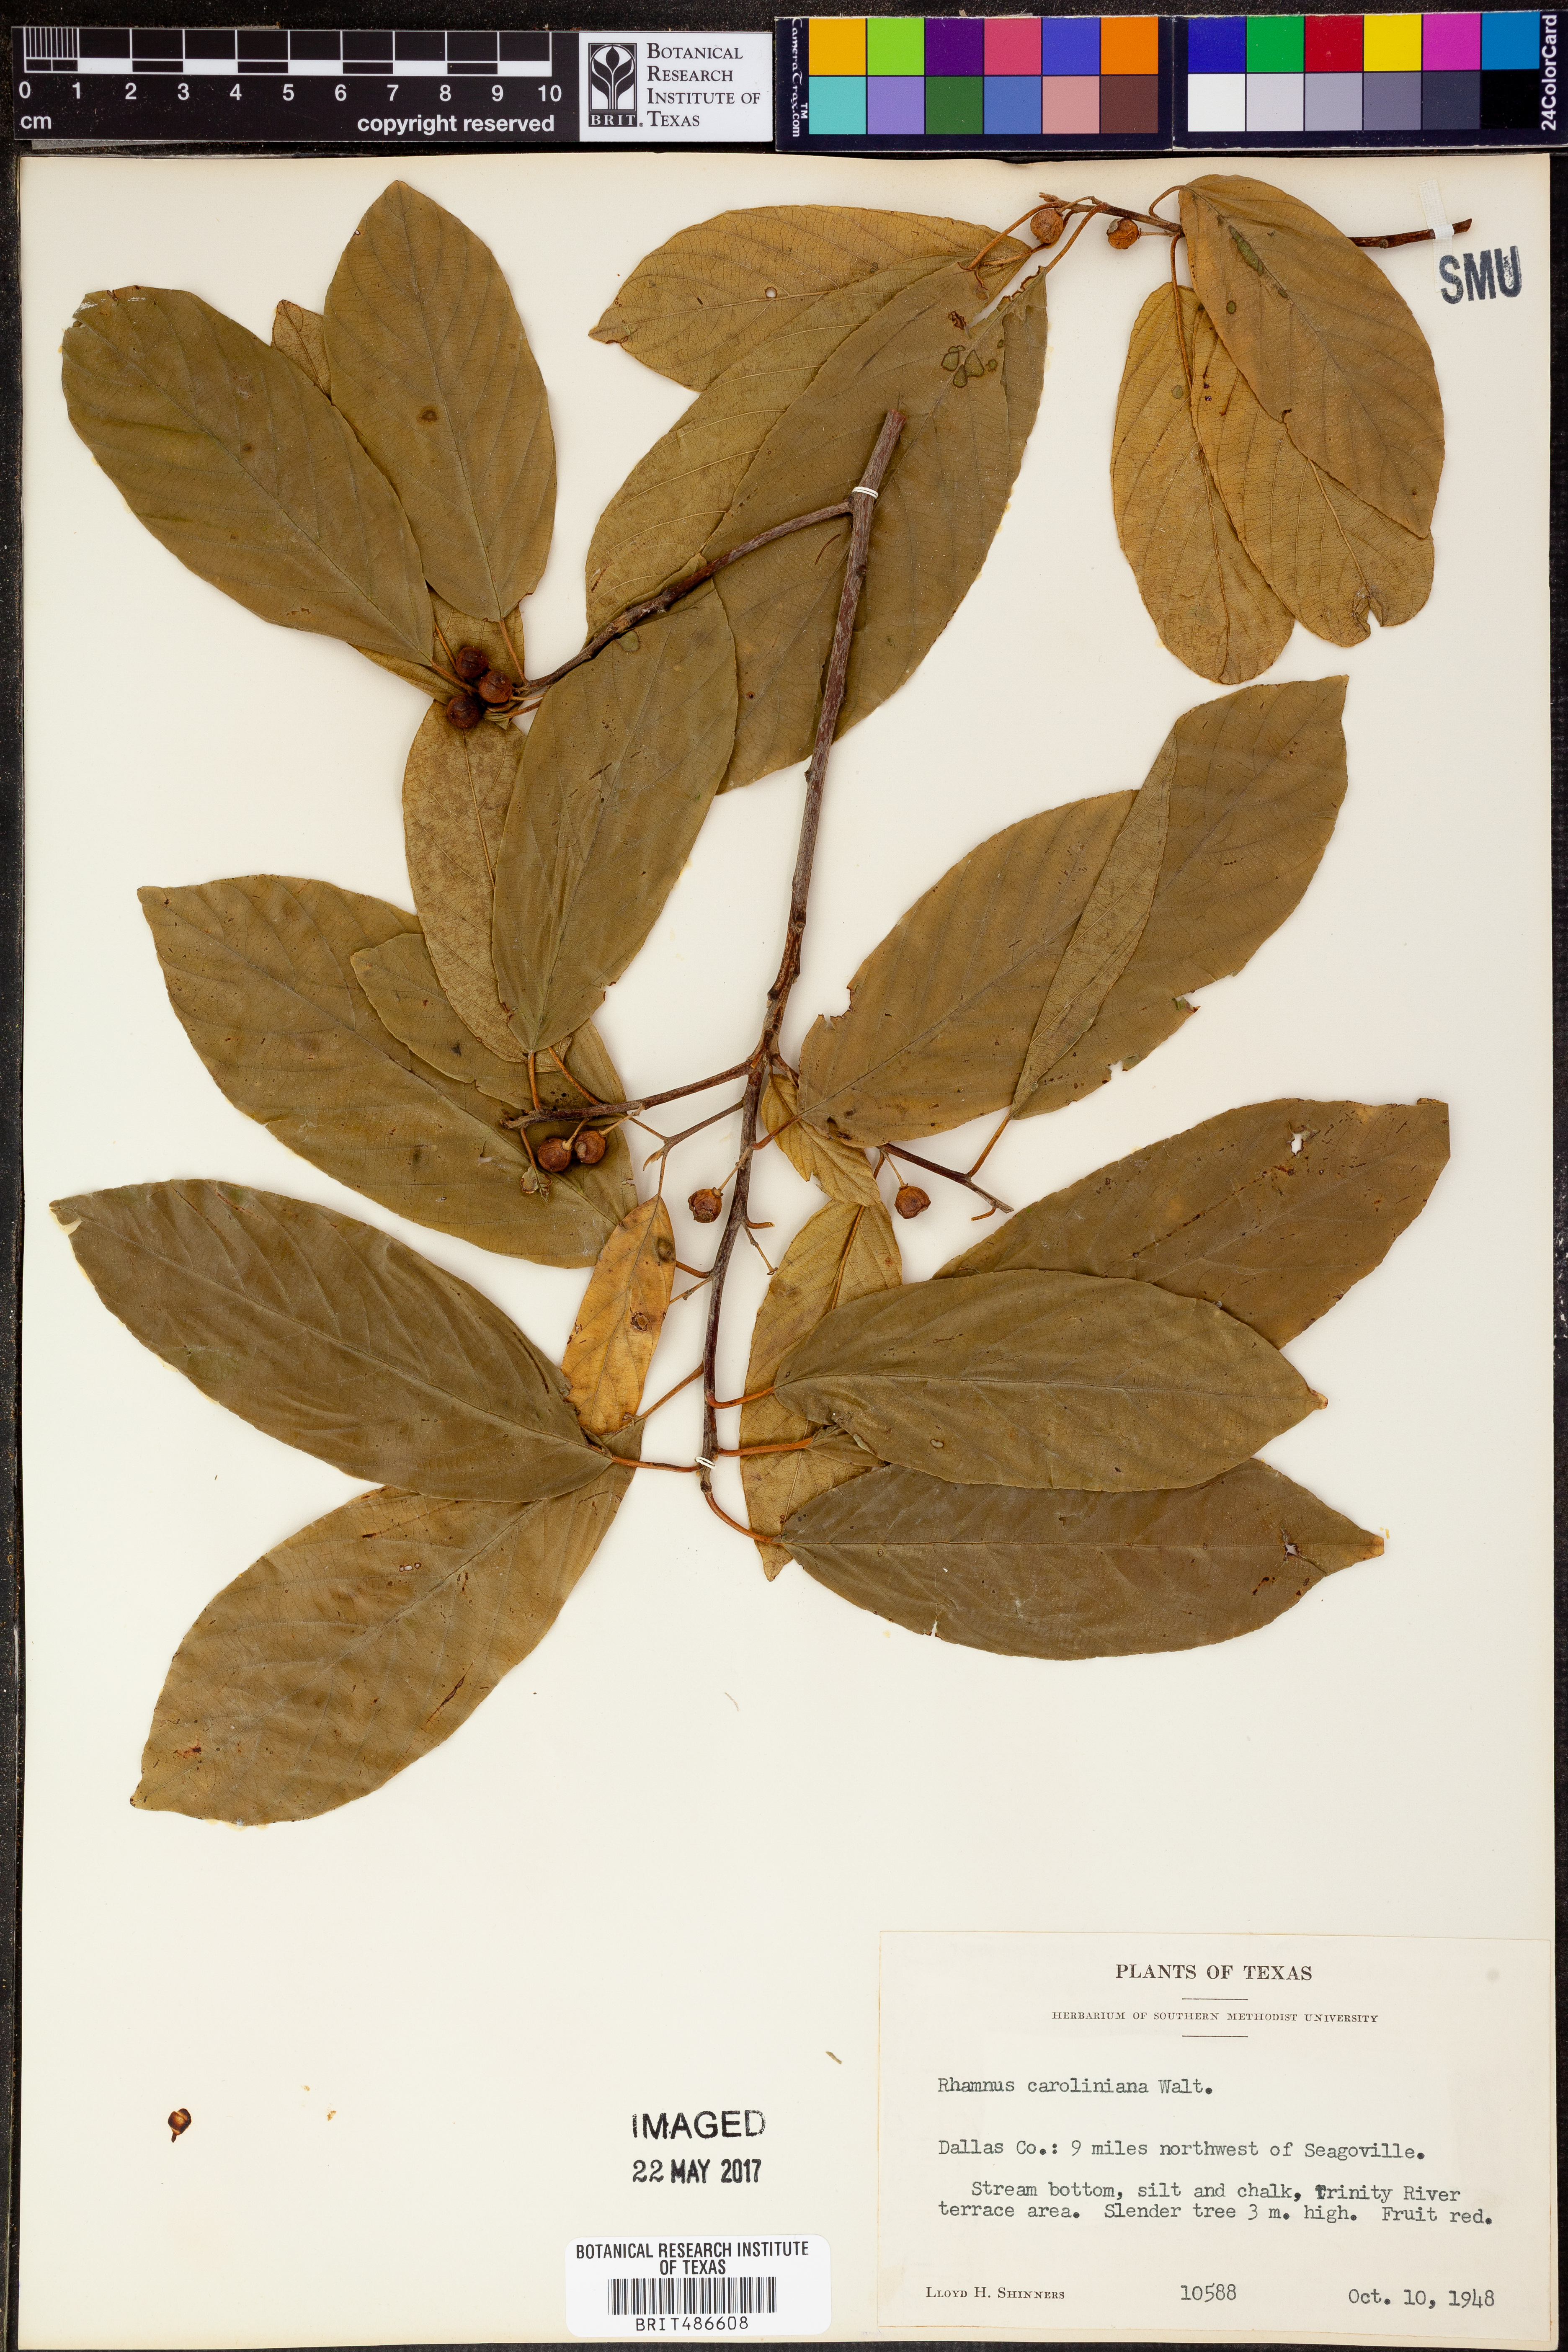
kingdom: Plantae
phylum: Tracheophyta
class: Magnoliopsida
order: Rosales
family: Rhamnaceae
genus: Frangula
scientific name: Frangula caroliniana
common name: Carolina buckthorn
